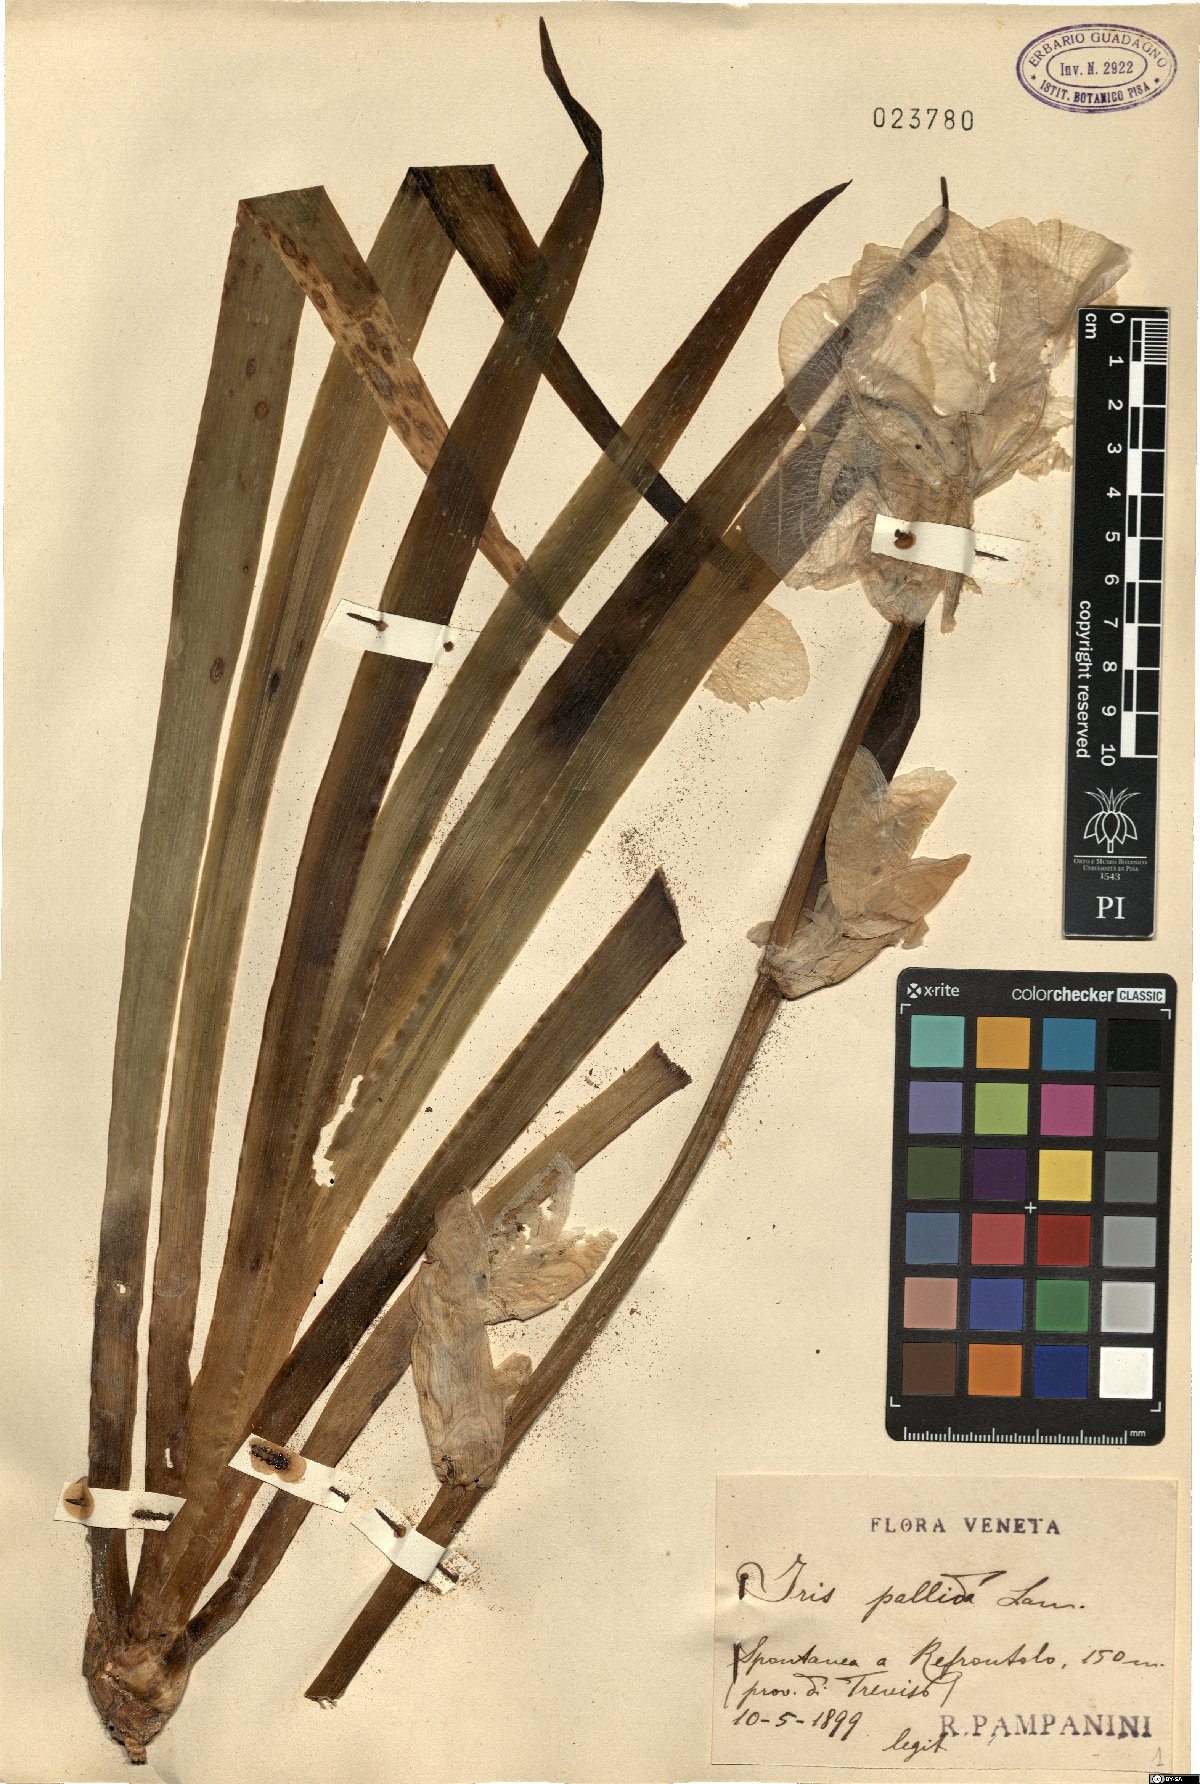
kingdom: Plantae
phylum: Tracheophyta
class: Liliopsida
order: Asparagales
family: Iridaceae
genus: Iris
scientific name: Iris pallida
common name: Sweet iris
